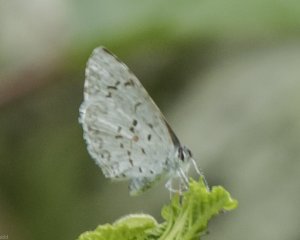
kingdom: Animalia
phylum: Arthropoda
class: Insecta
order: Lepidoptera
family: Lycaenidae
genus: Celastrina
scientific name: Celastrina serotina
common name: Cherry Gall Azure
